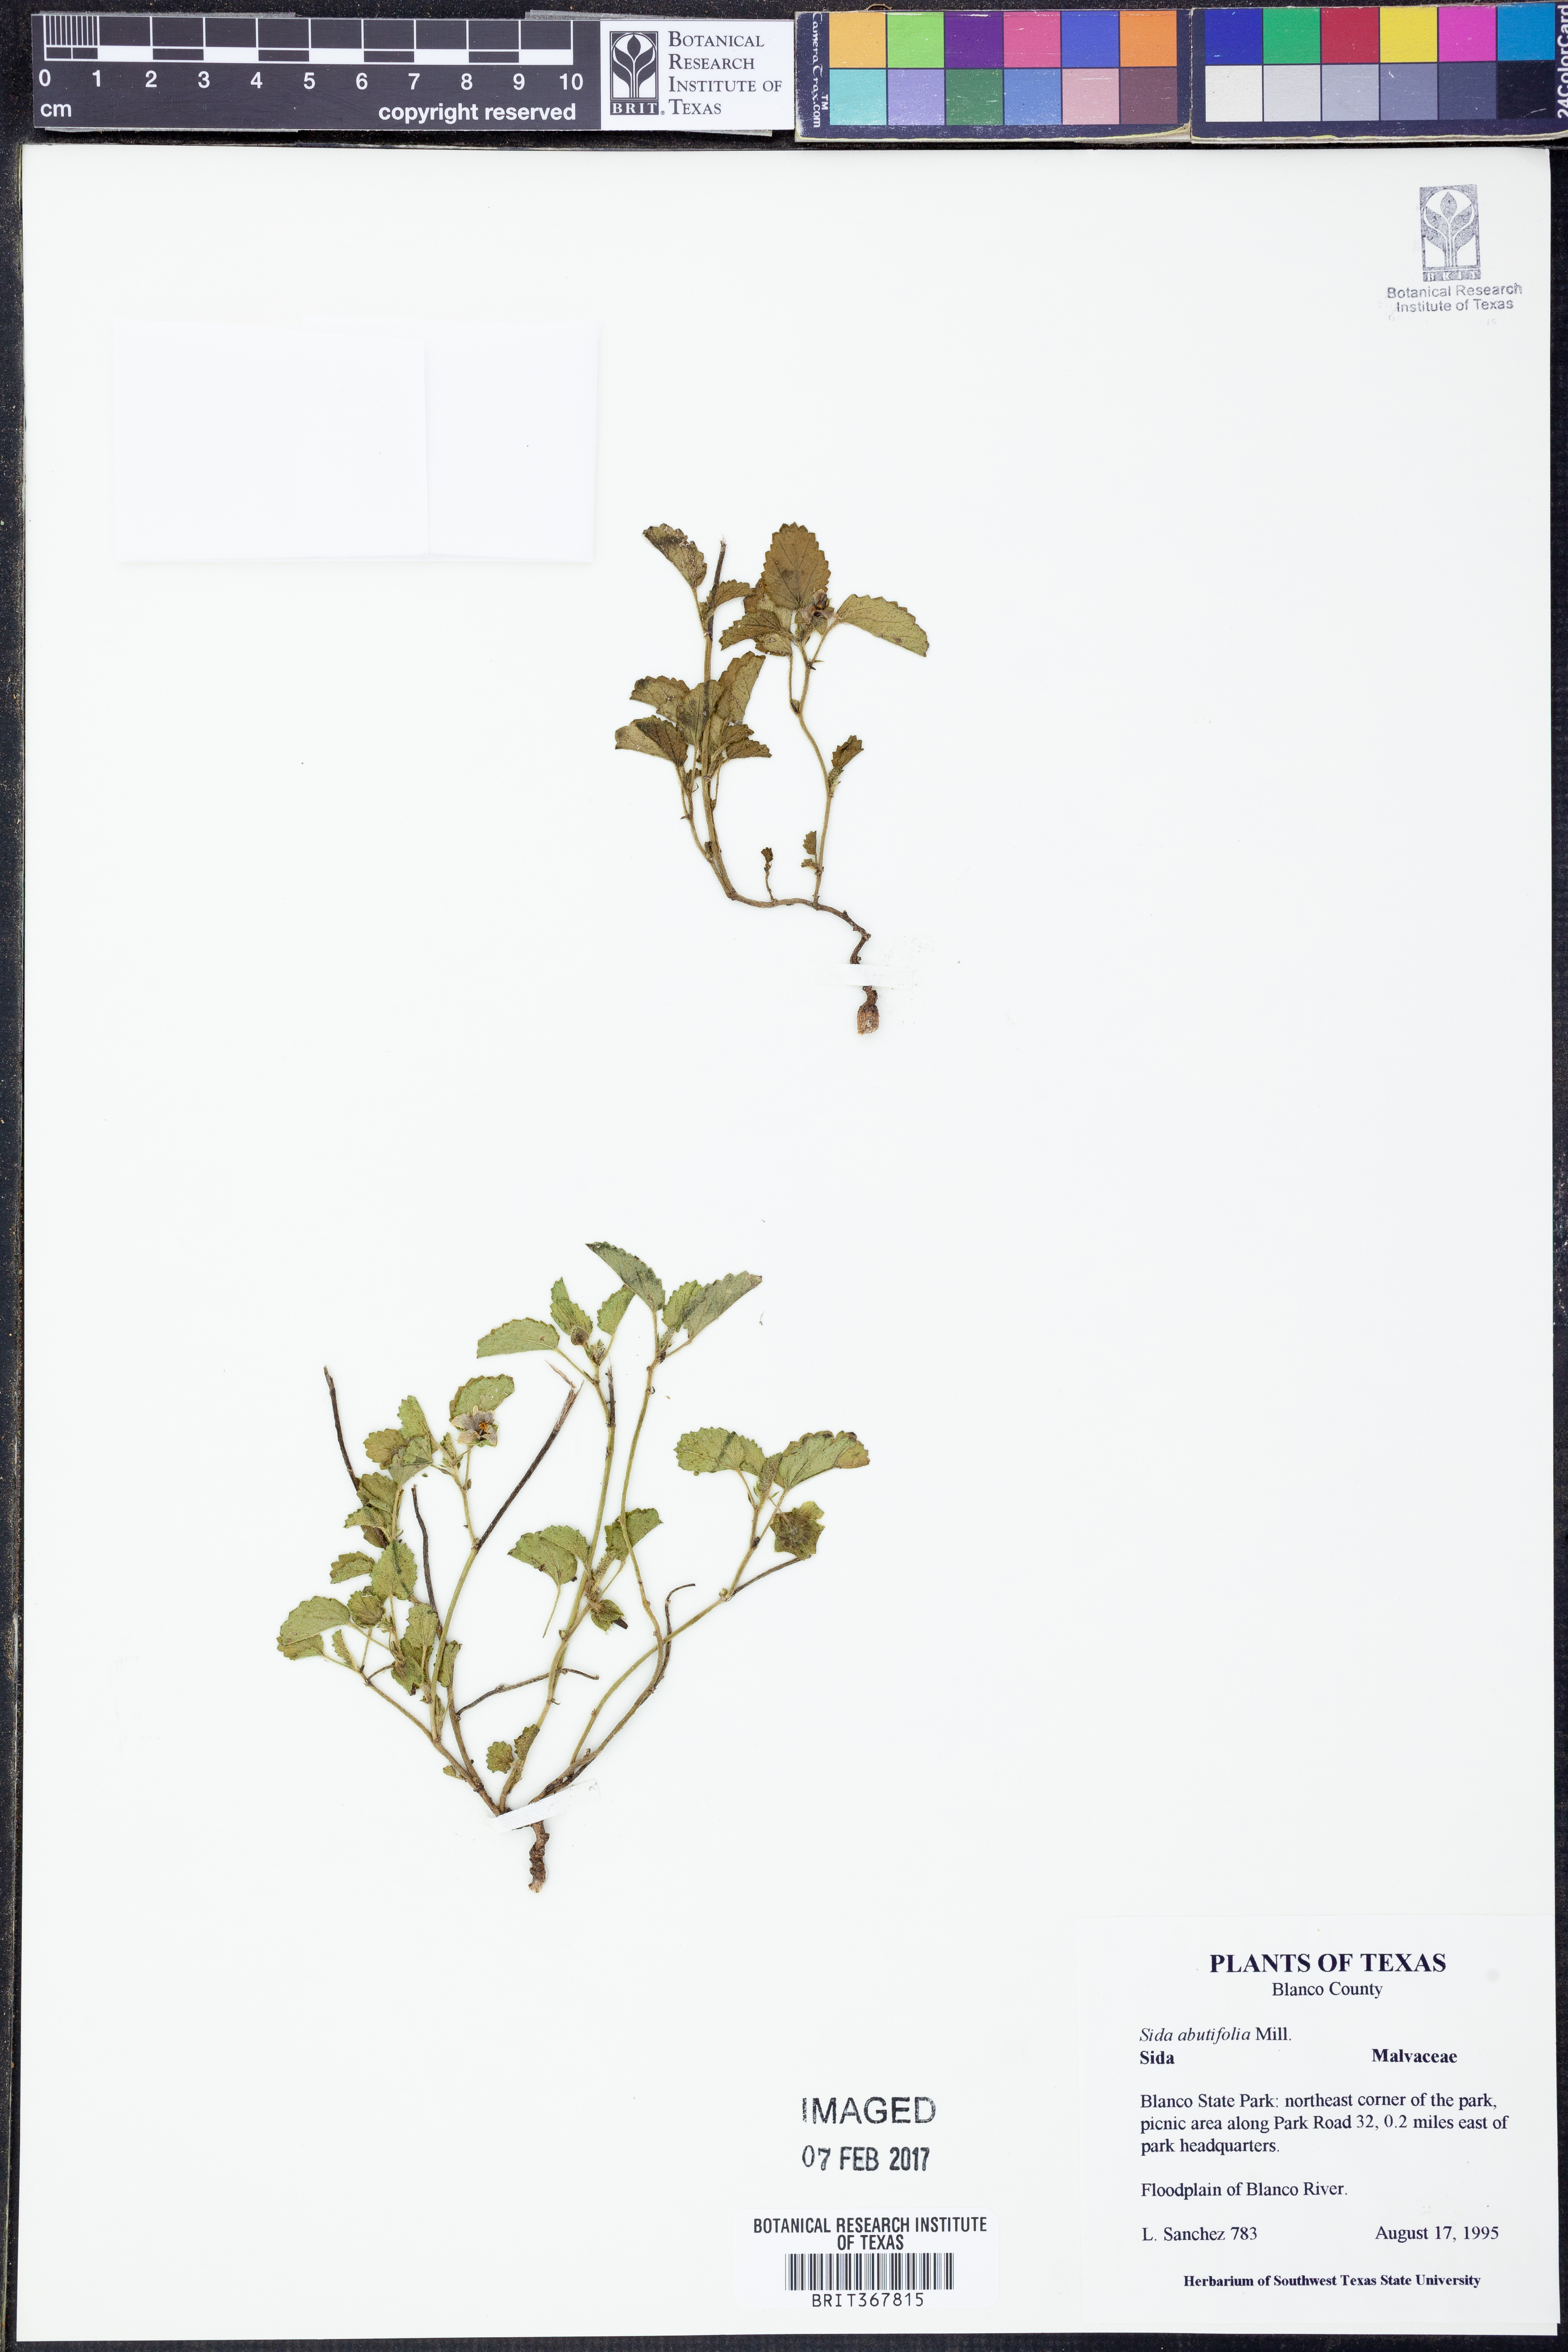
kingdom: Plantae
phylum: Tracheophyta
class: Magnoliopsida
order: Malvales
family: Malvaceae
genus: Sida
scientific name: Sida abutifolia
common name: Spreading fantails
